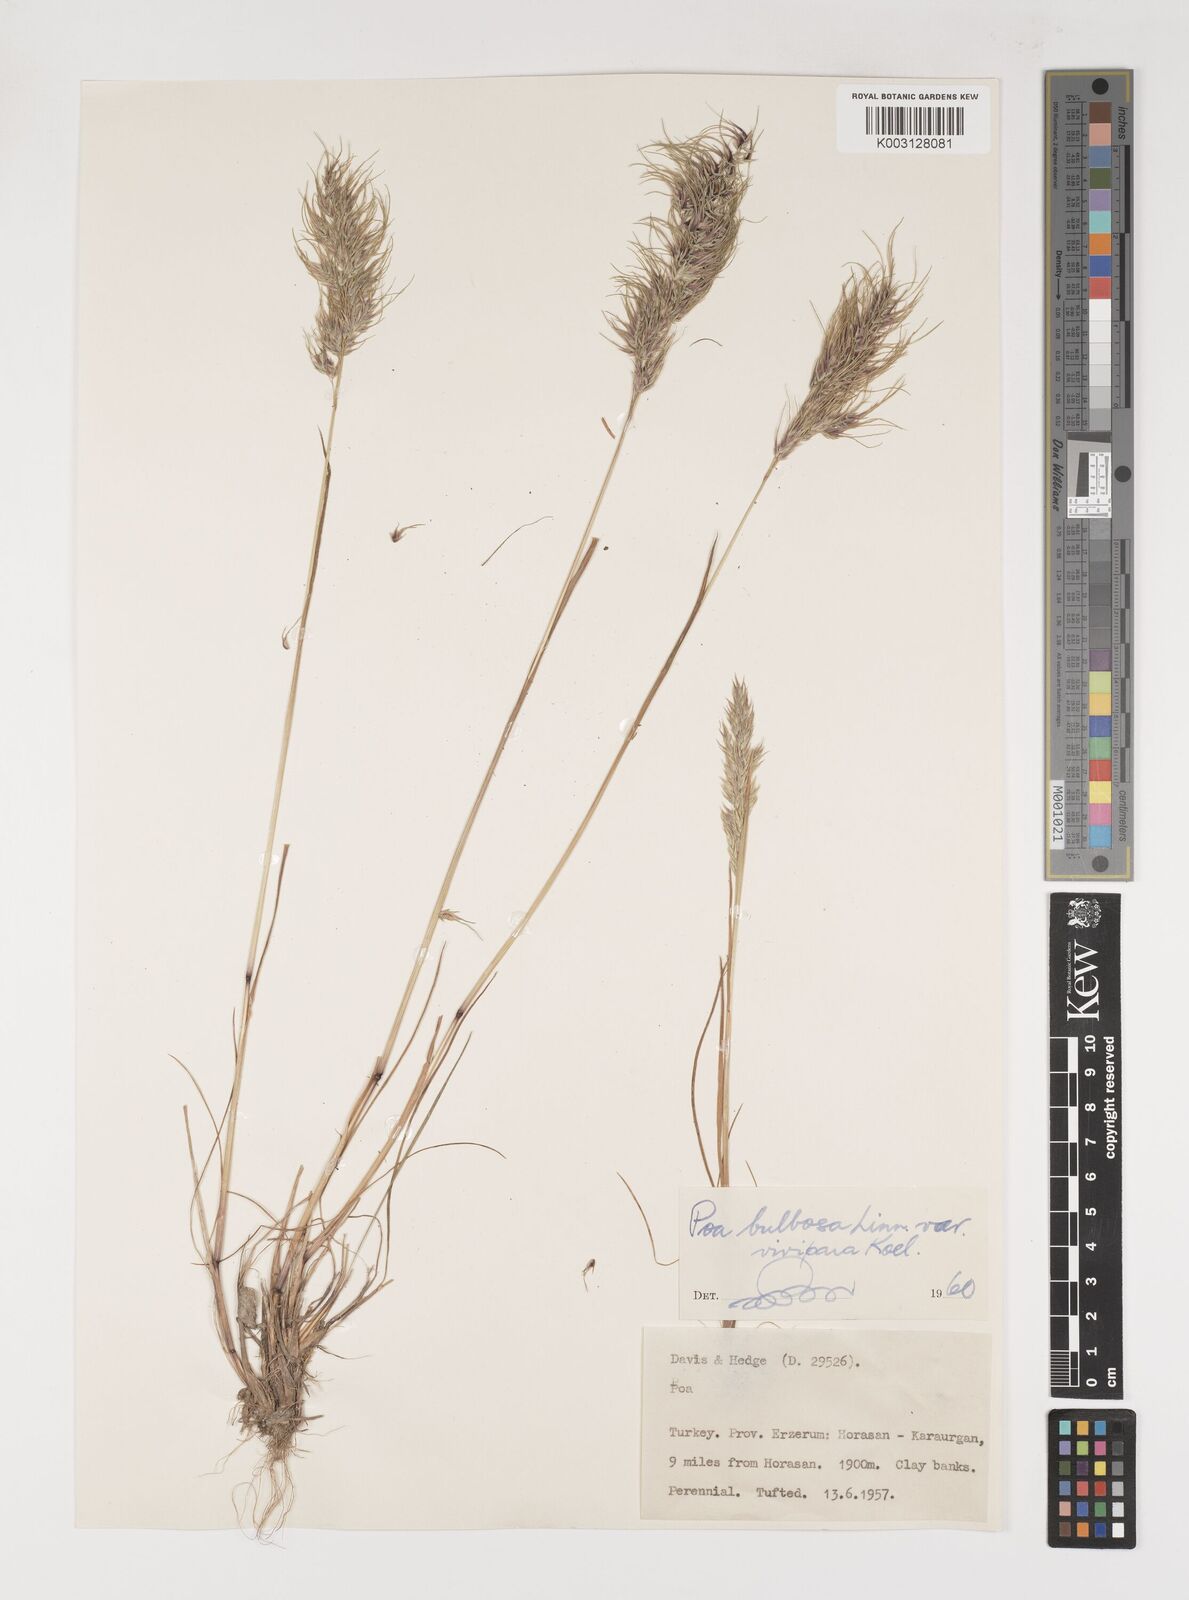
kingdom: Plantae
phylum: Tracheophyta
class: Liliopsida
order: Poales
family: Poaceae
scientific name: Poaceae
